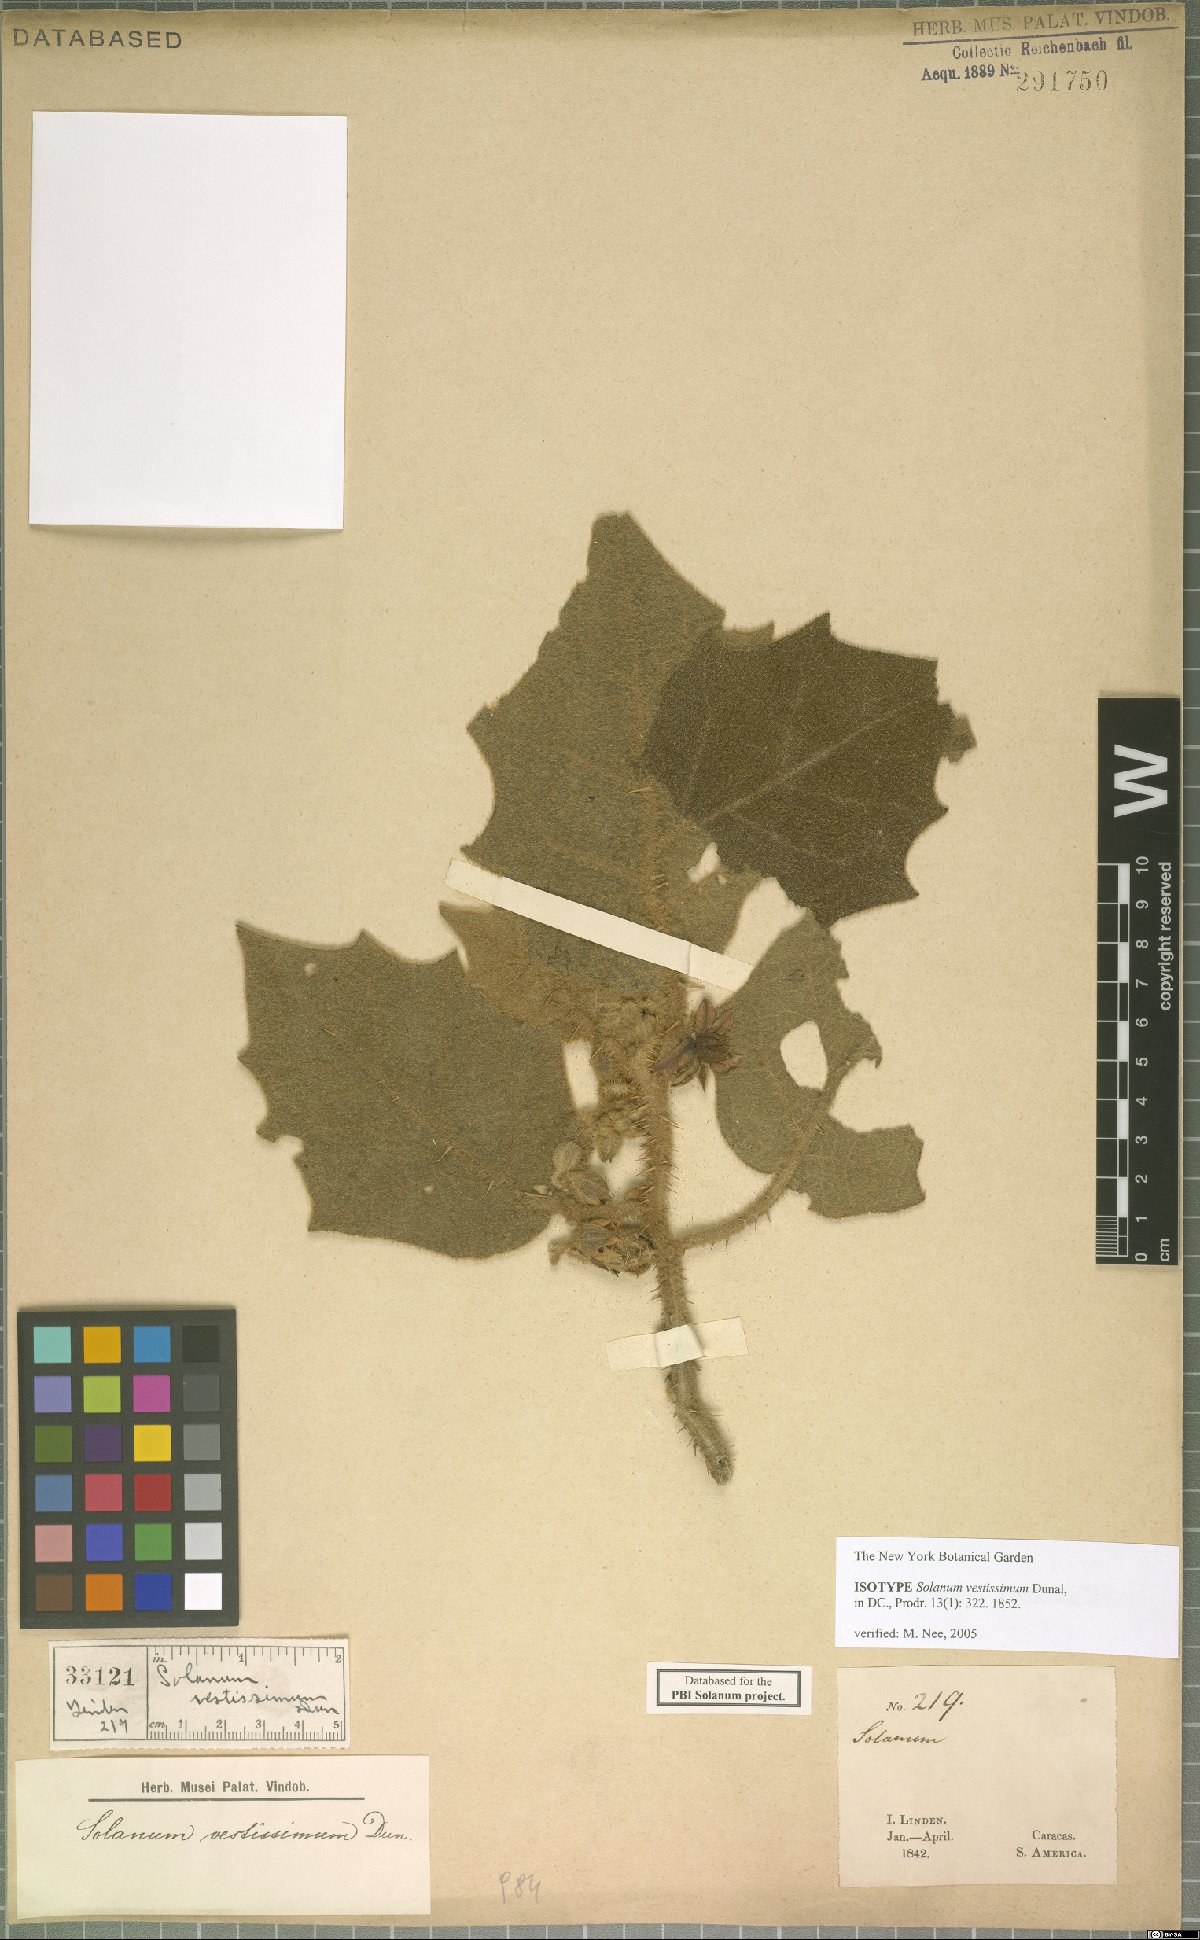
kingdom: Plantae
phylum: Tracheophyta
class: Magnoliopsida
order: Solanales
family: Solanaceae
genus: Solanum
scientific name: Solanum vestissimum
